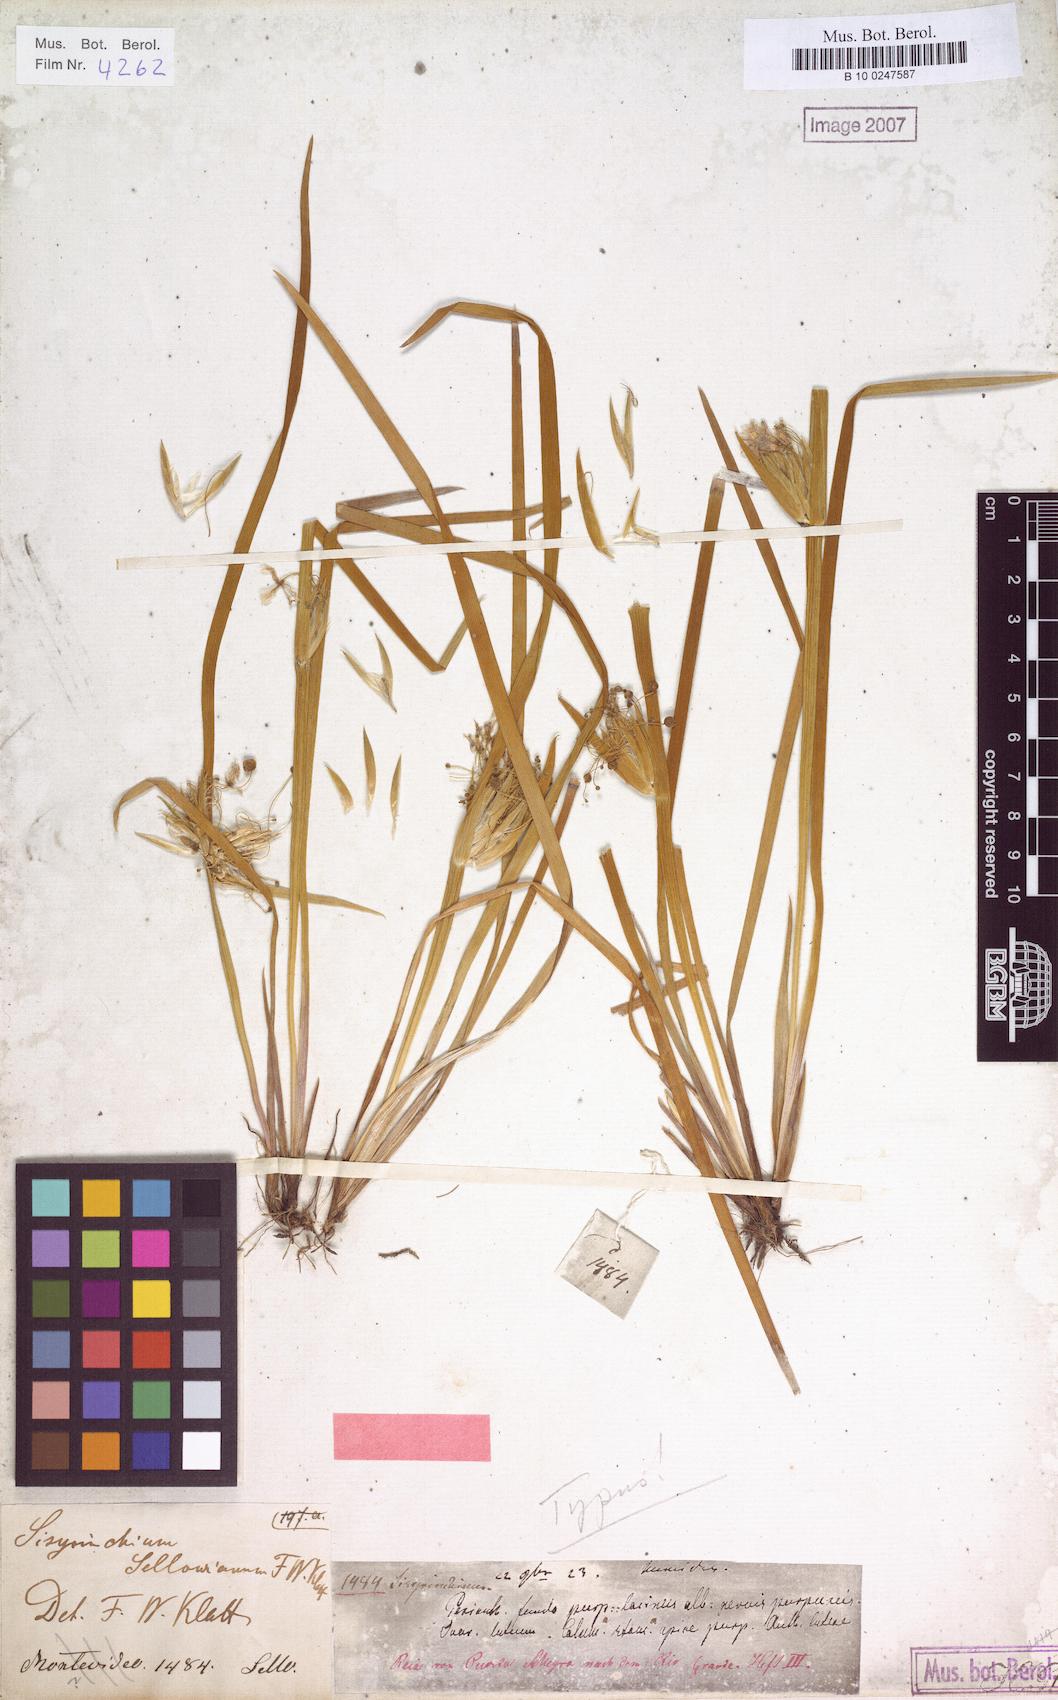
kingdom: Plantae
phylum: Tracheophyta
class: Liliopsida
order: Asparagales
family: Iridaceae
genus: Sisyrinchium
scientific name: Sisyrinchium sellowianum
